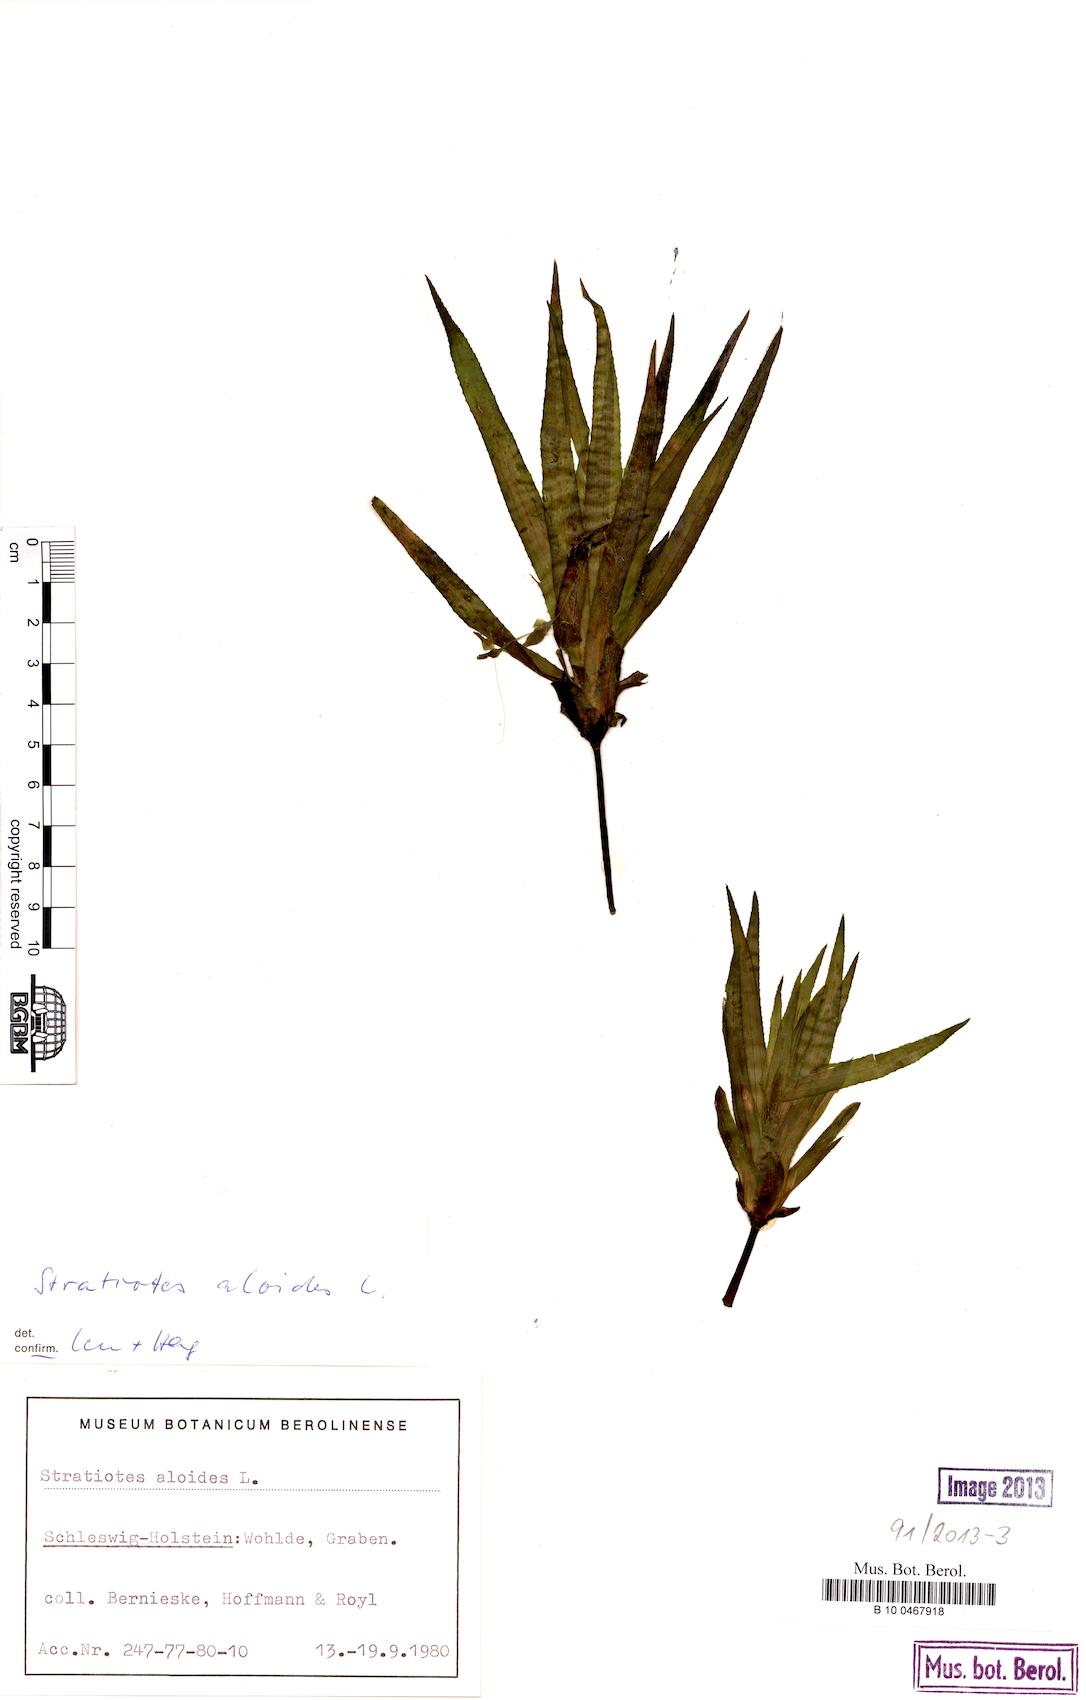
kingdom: Plantae
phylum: Tracheophyta
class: Liliopsida
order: Alismatales
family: Hydrocharitaceae
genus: Stratiotes
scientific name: Stratiotes aloides
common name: Water-soldier
